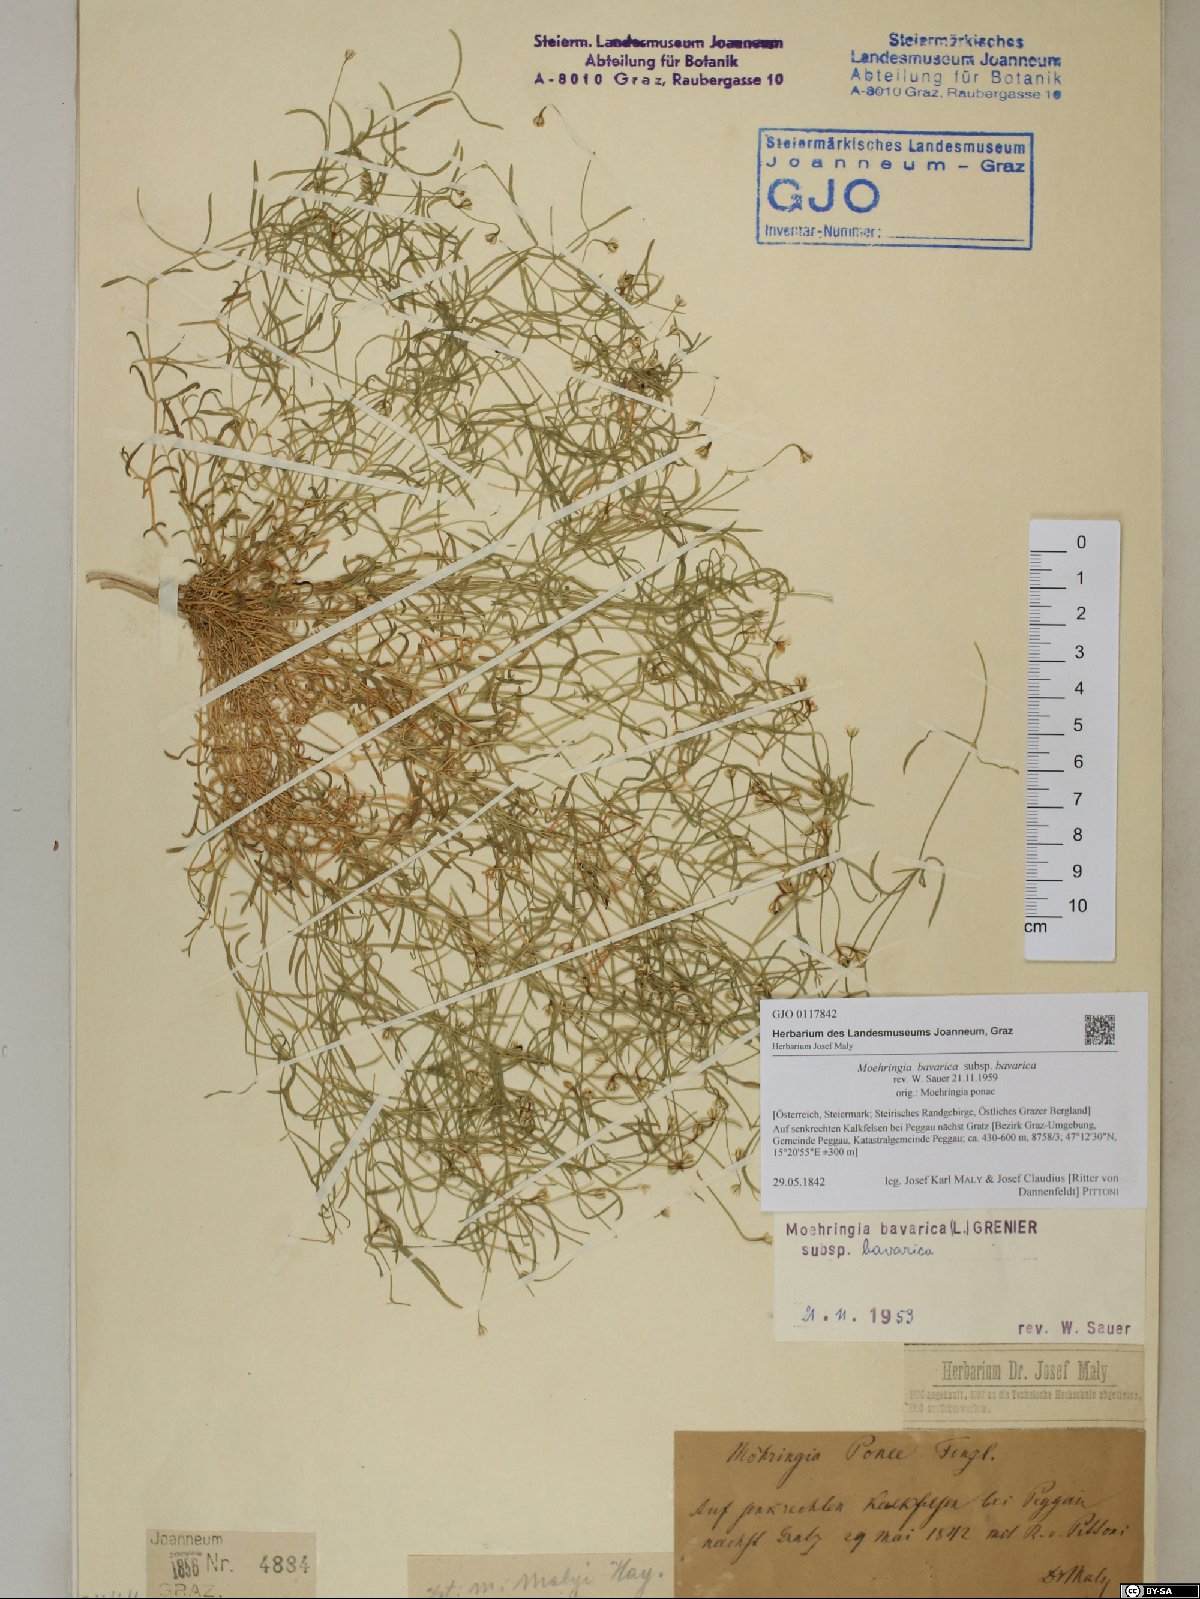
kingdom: Plantae
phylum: Tracheophyta
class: Magnoliopsida
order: Caryophyllales
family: Caryophyllaceae
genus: Moehringia
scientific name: Moehringia bavarica
